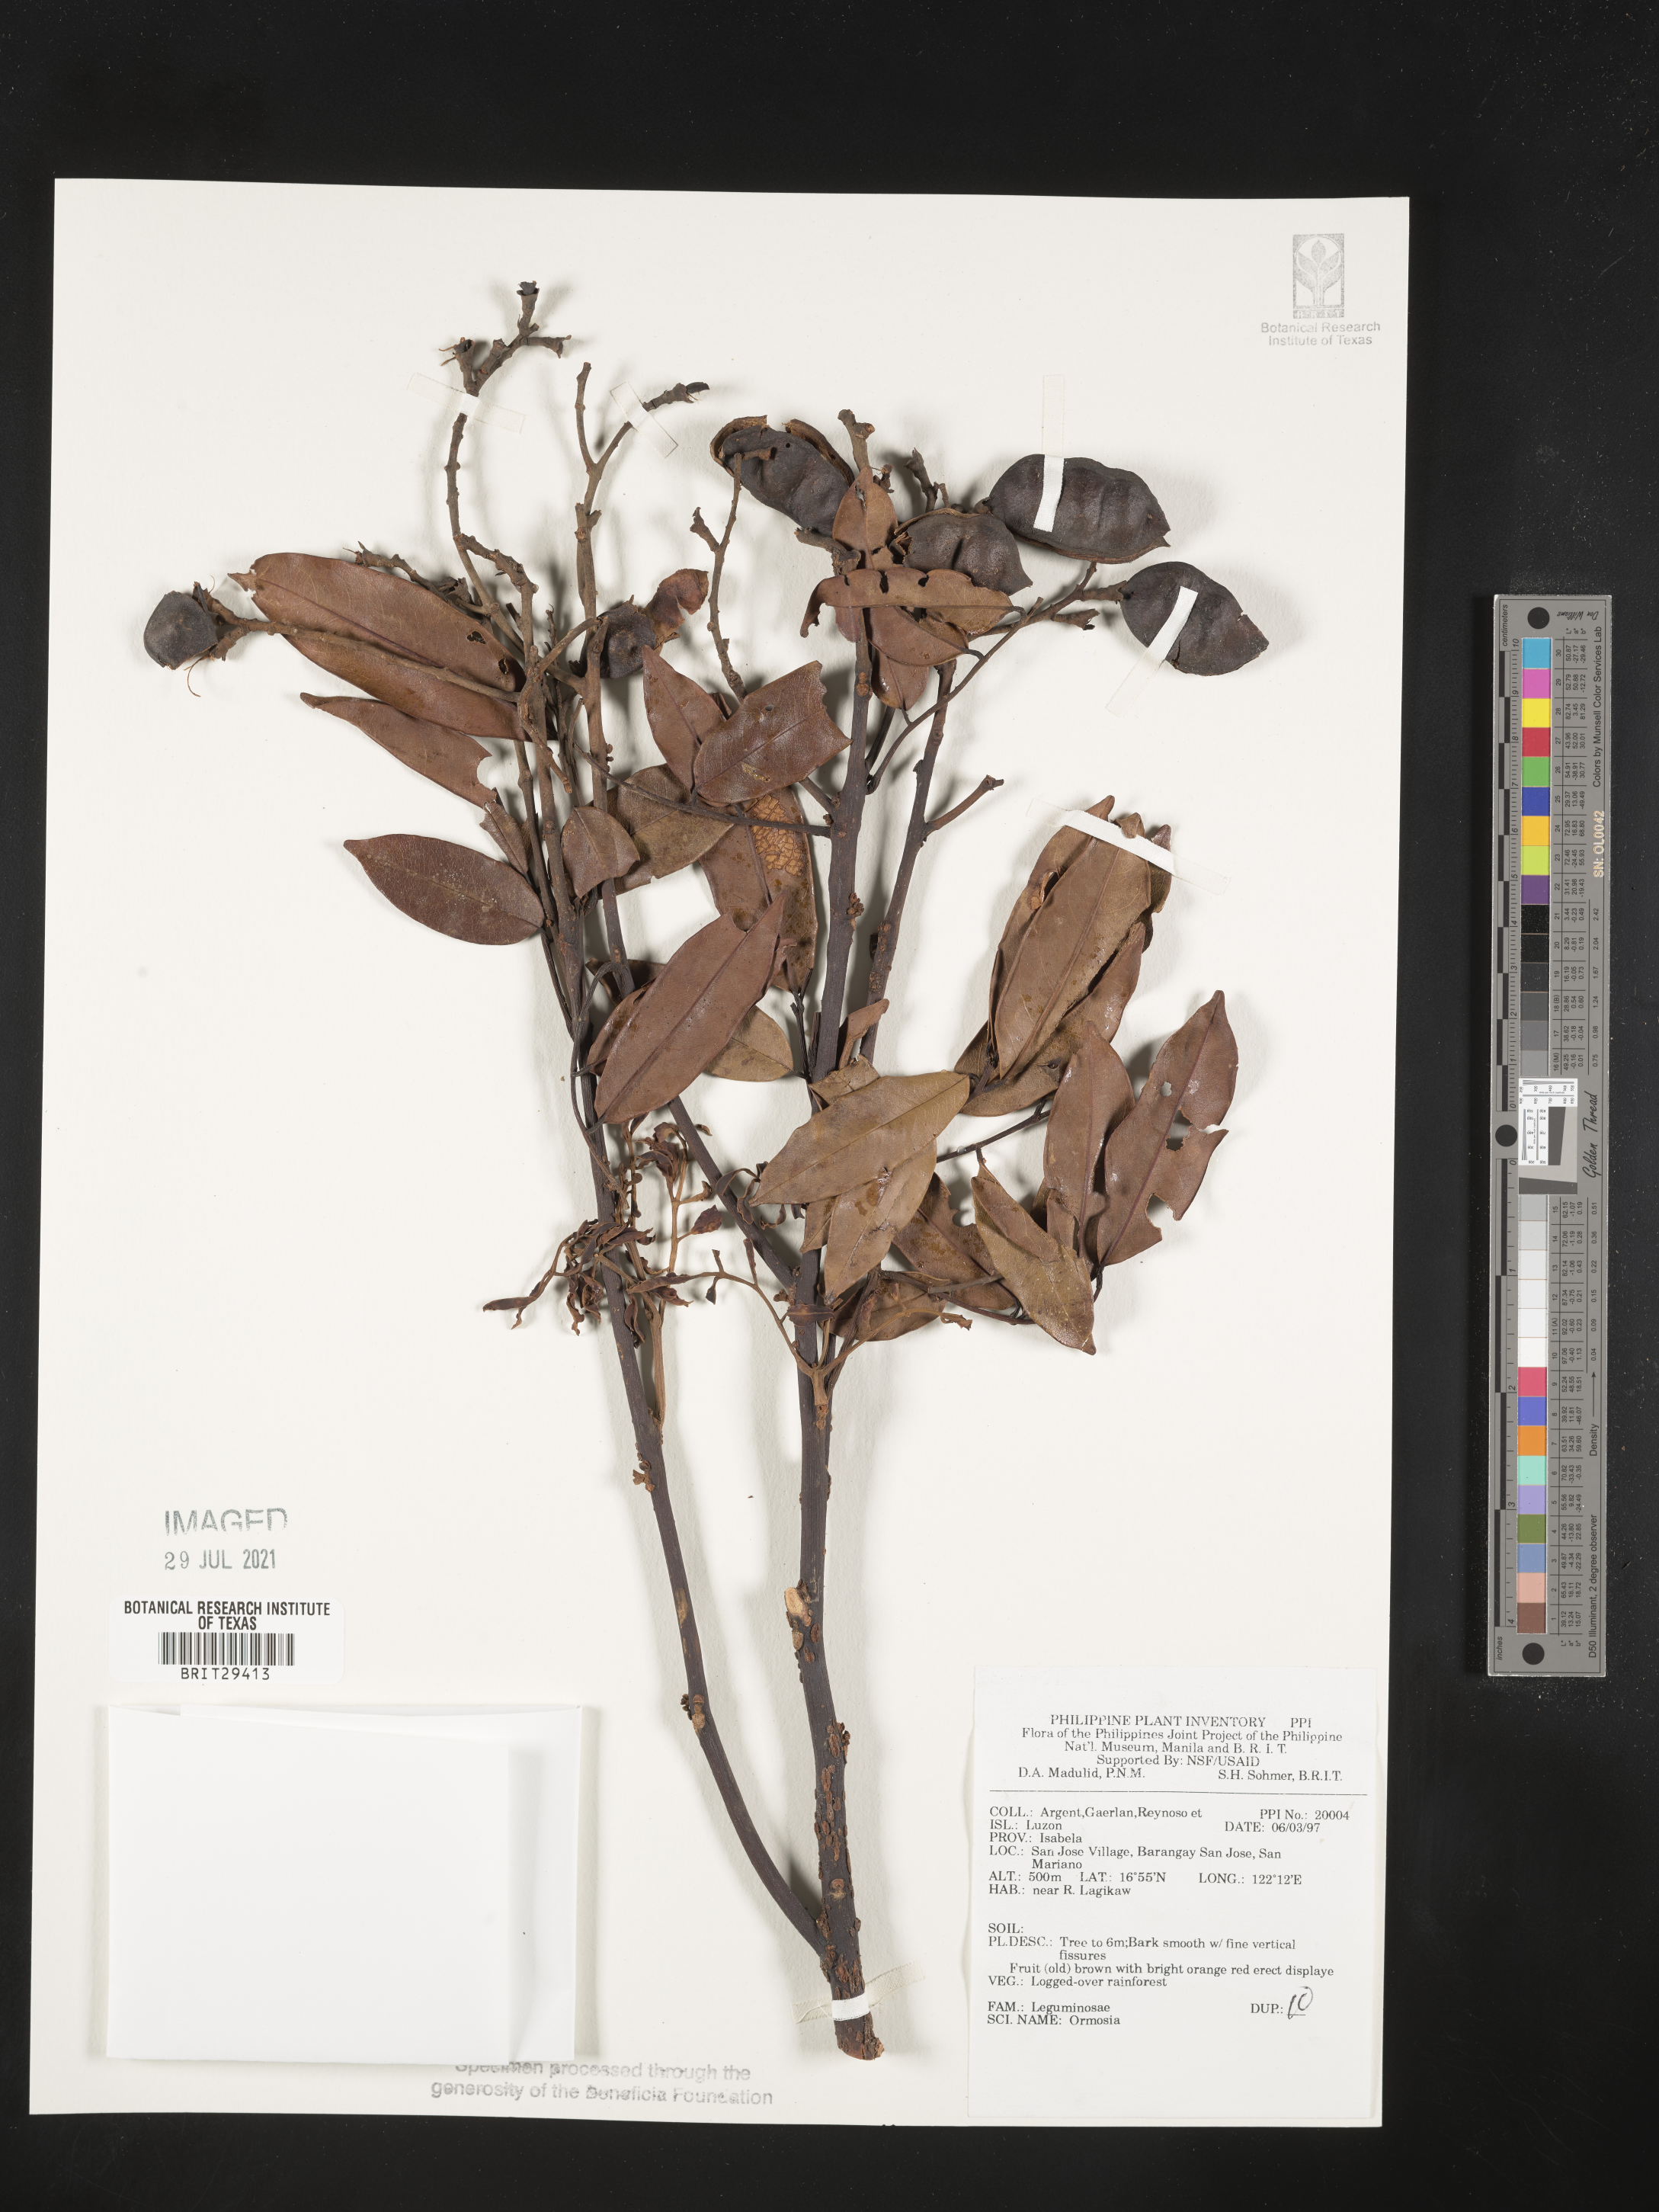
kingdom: Plantae
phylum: Tracheophyta
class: Magnoliopsida
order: Fabales
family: Fabaceae
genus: Ormosia
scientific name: Ormosia
